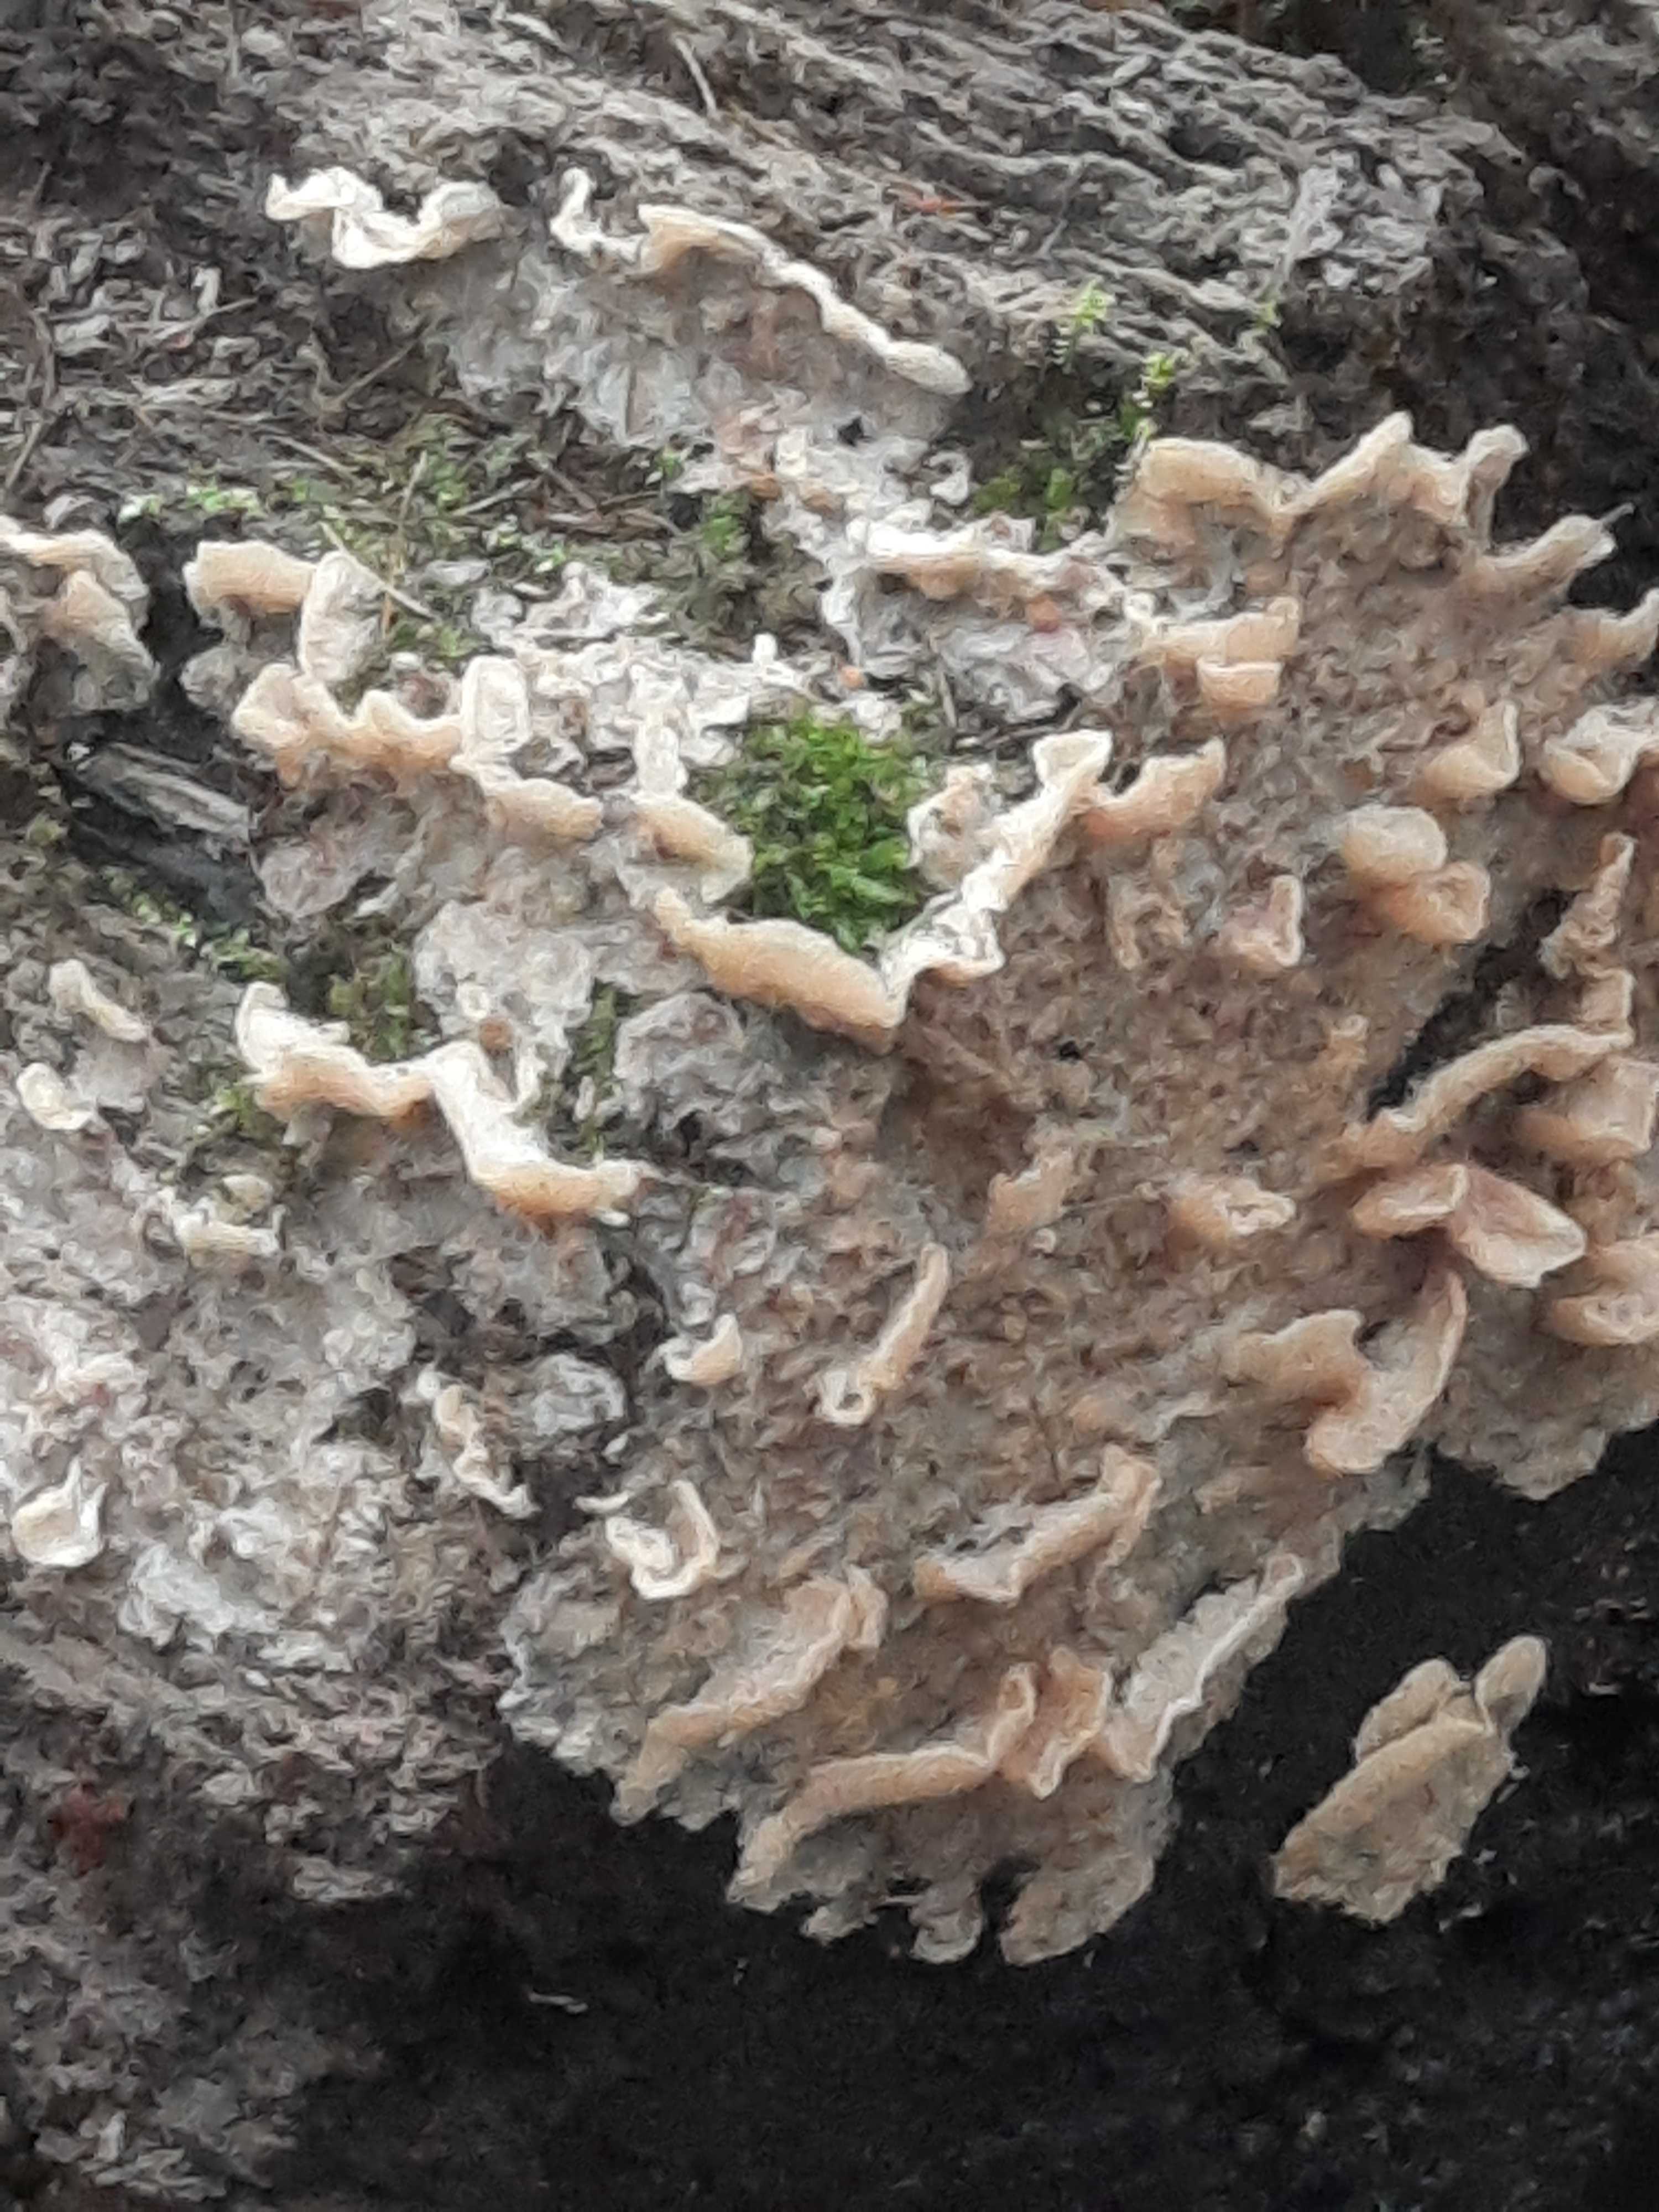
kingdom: Fungi
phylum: Basidiomycota
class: Agaricomycetes
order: Polyporales
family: Meruliaceae
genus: Phlebia
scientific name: Phlebia tremellosa
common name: bævrende åresvamp
